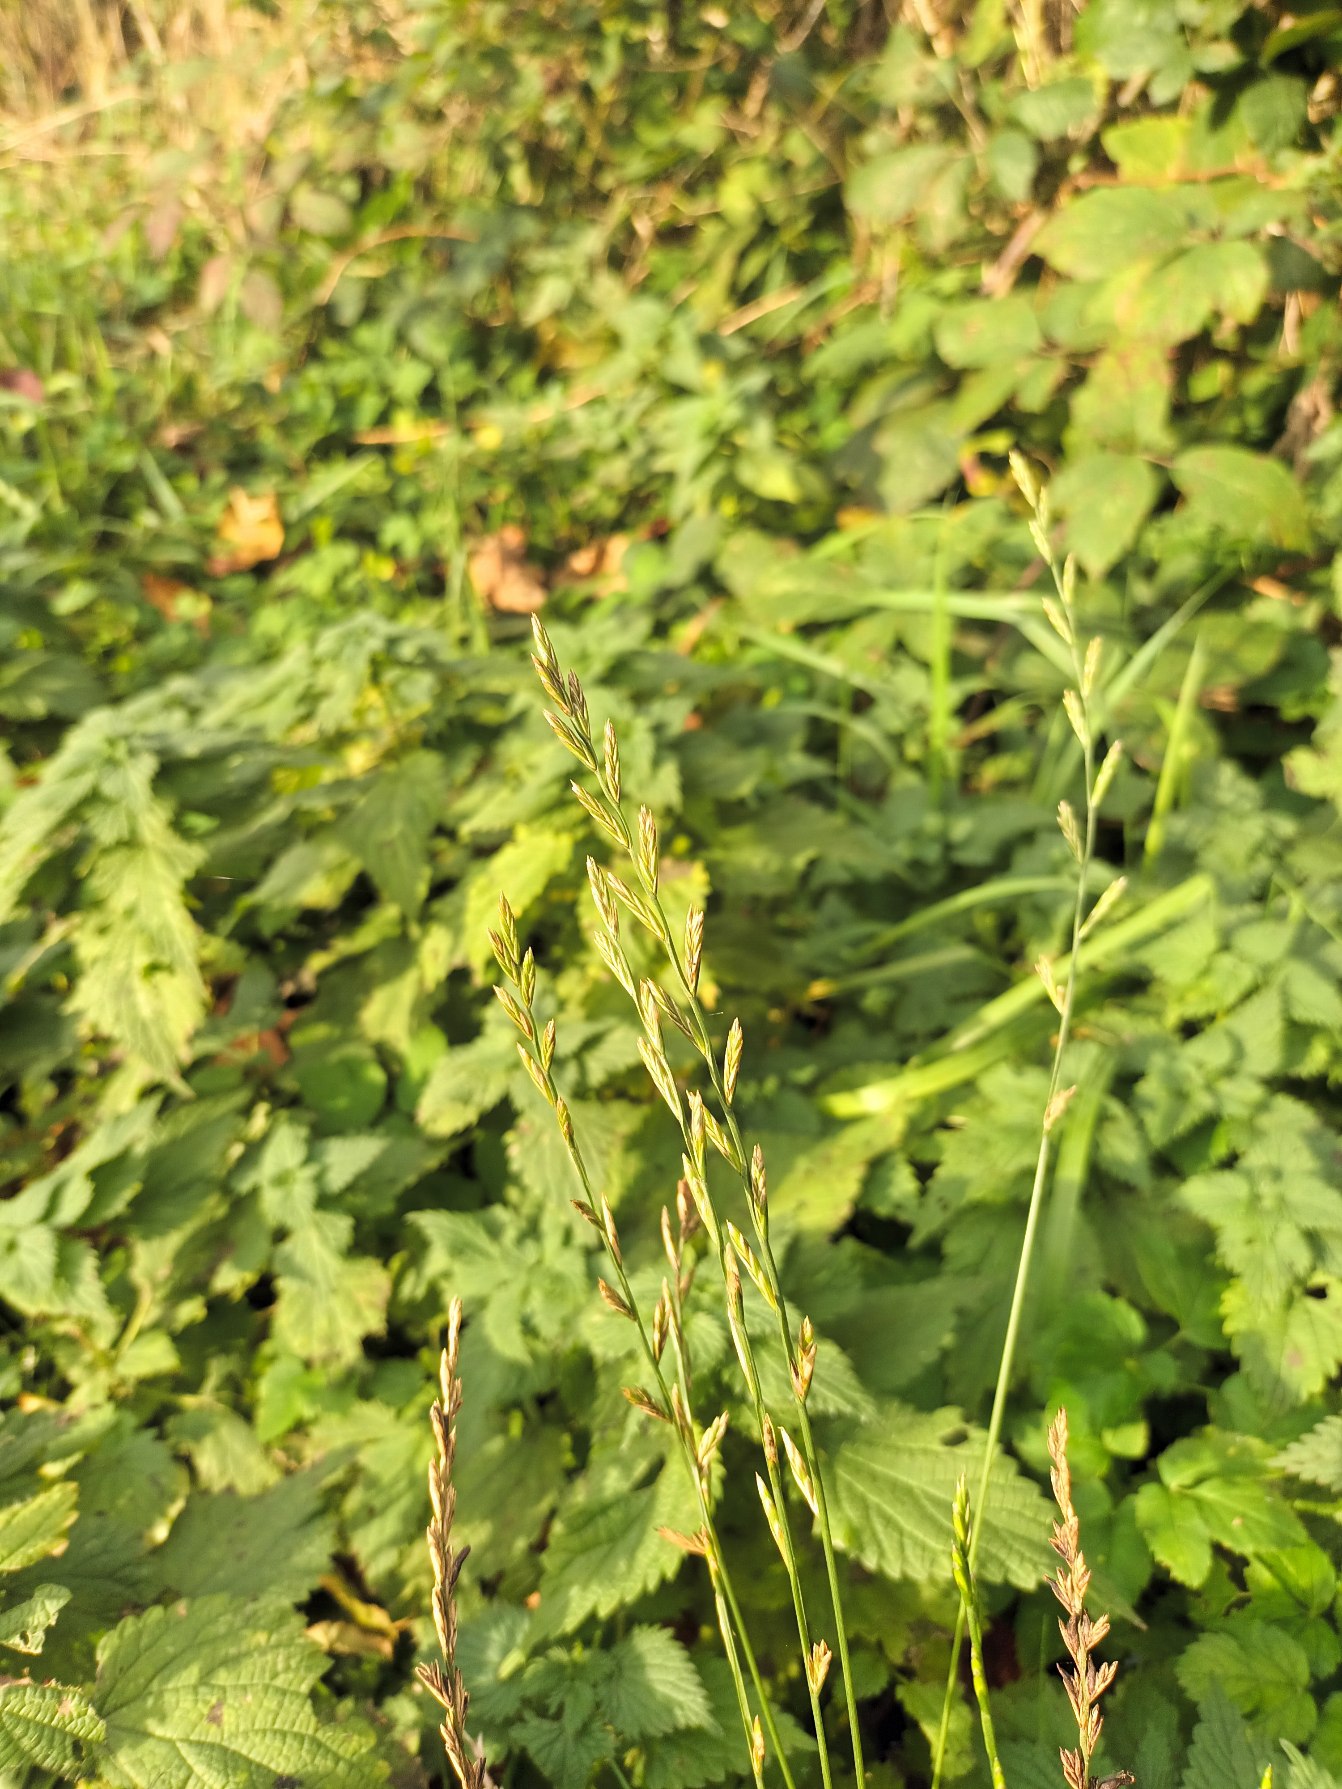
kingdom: Plantae
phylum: Tracheophyta
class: Liliopsida
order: Poales
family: Poaceae
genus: Lolium
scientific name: Lolium perenne
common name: Almindelig rajgræs
